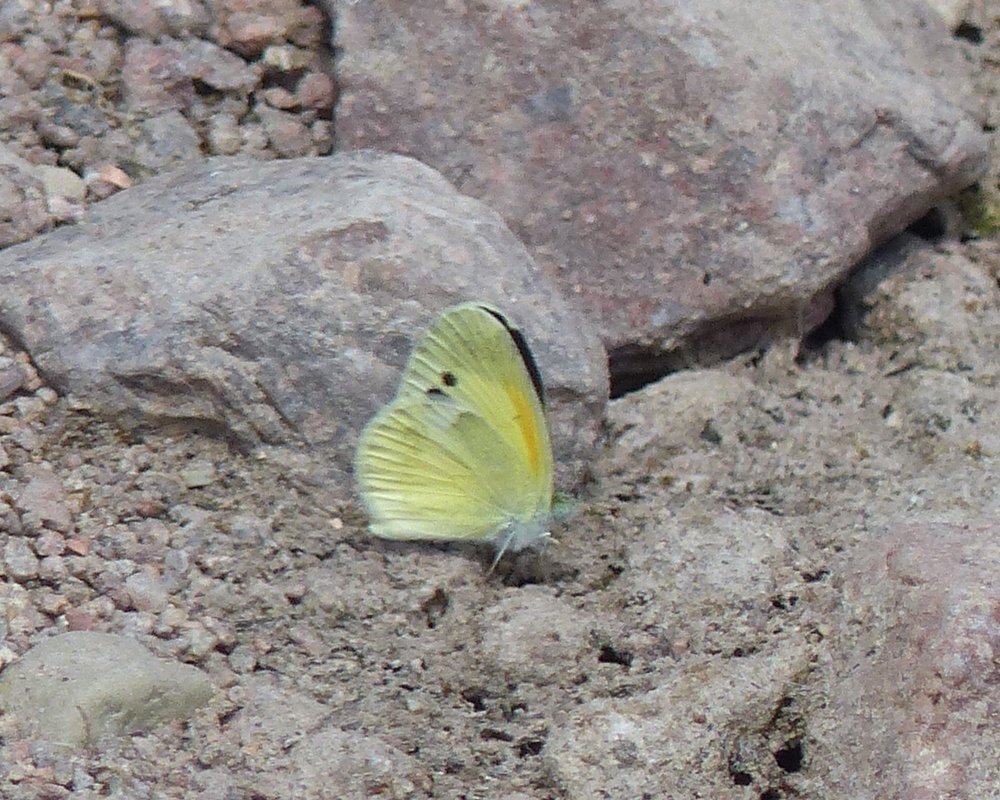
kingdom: Animalia
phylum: Arthropoda
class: Insecta
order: Lepidoptera
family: Pieridae
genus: Nathalis
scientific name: Nathalis iole
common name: Dainty Sulphur
